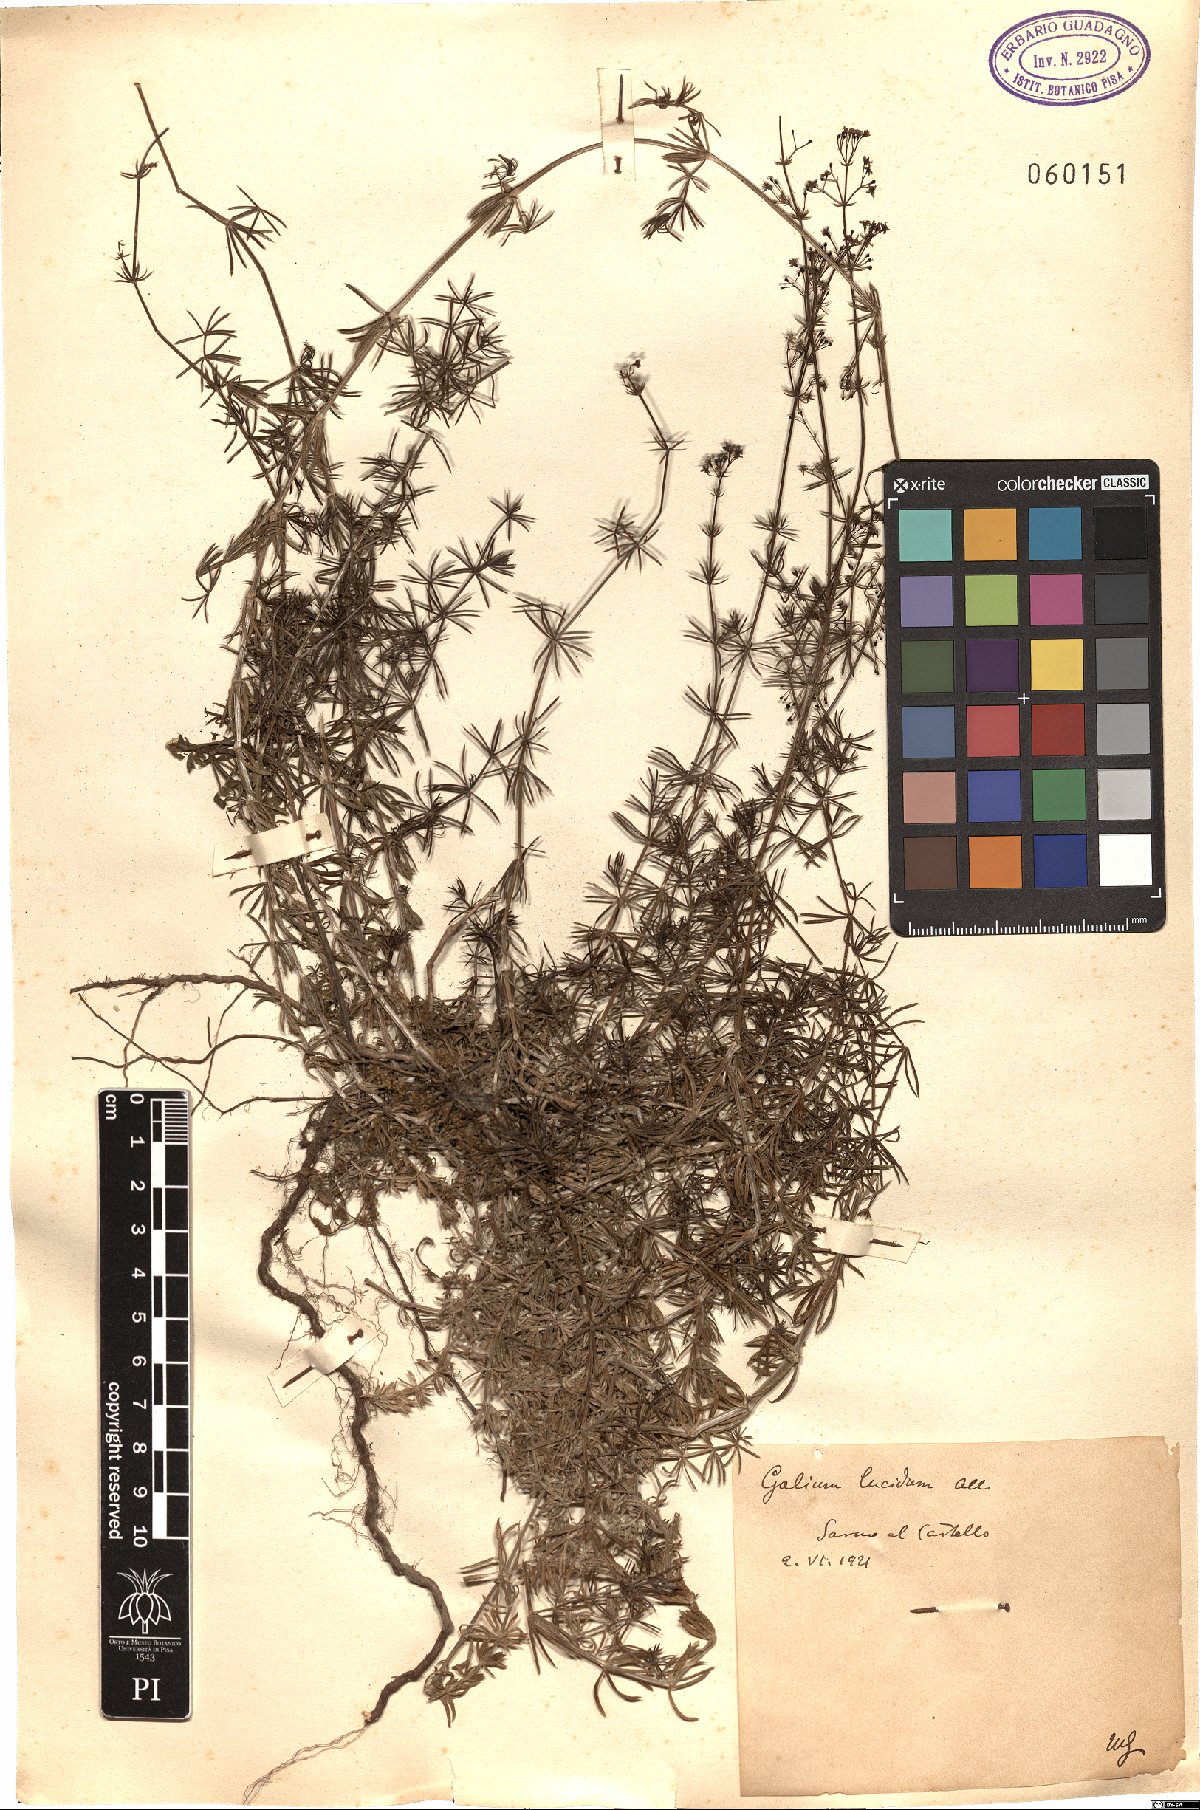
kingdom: Plantae
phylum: Tracheophyta
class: Magnoliopsida
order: Gentianales
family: Rubiaceae
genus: Galium
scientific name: Galium lucidum
